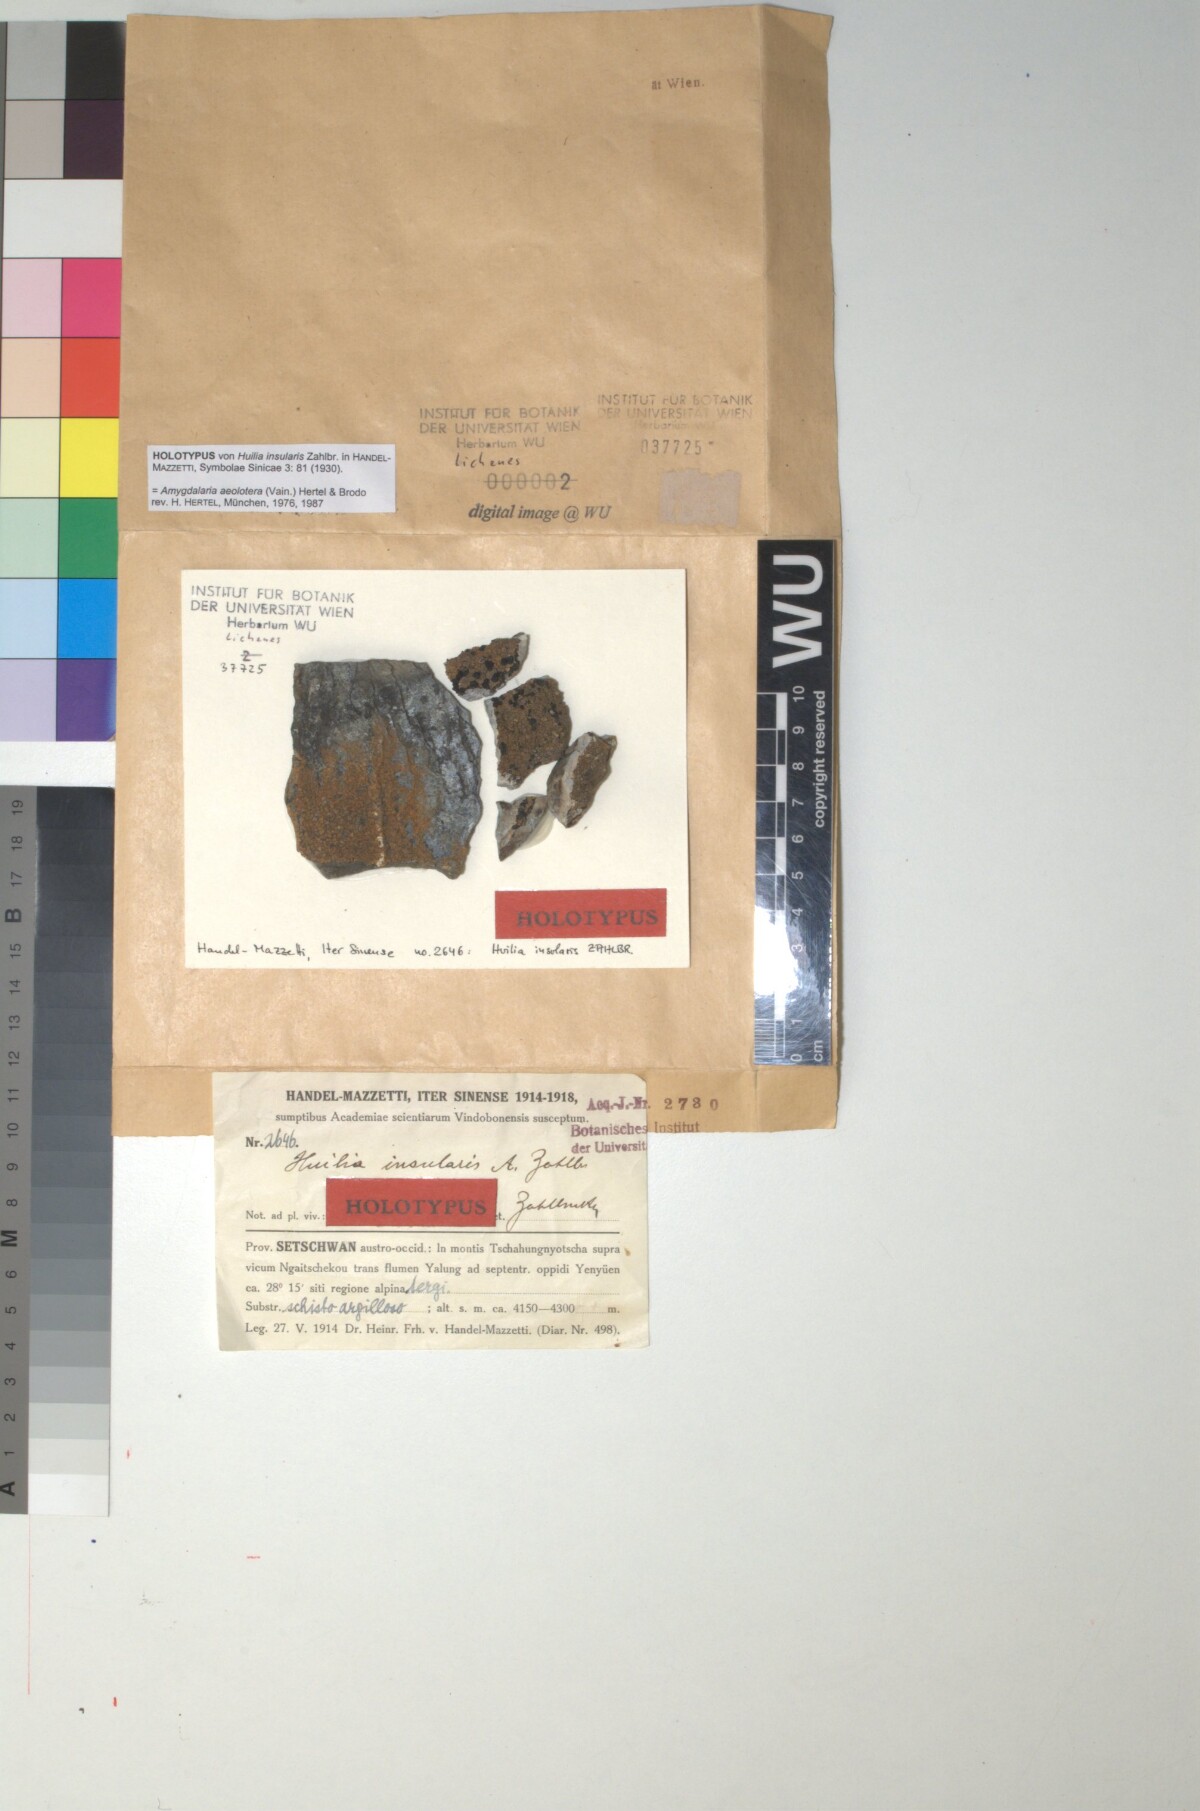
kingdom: Fungi
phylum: Ascomycota
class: Lecanoromycetes
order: Lecideales
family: Porpidiaceae
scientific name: Porpidiaceae
